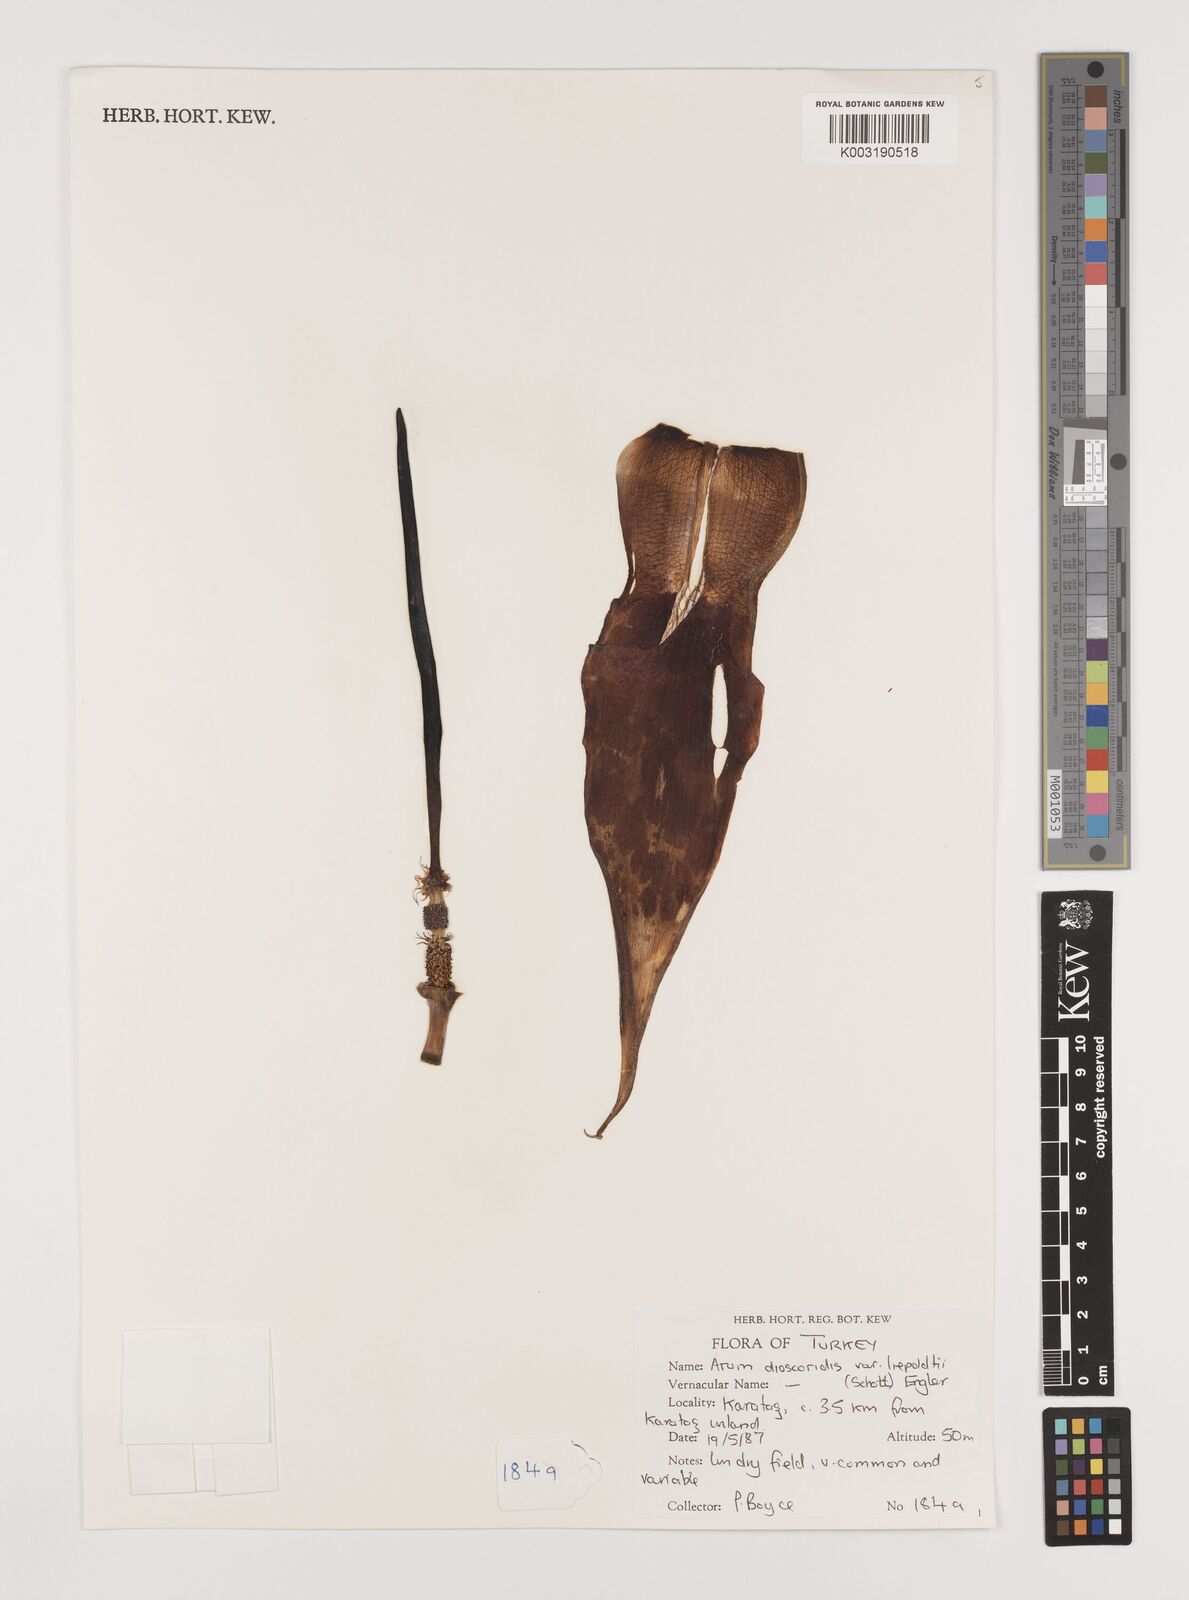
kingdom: Plantae
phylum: Tracheophyta
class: Liliopsida
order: Alismatales
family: Araceae
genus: Arum
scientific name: Arum dioscoridis
